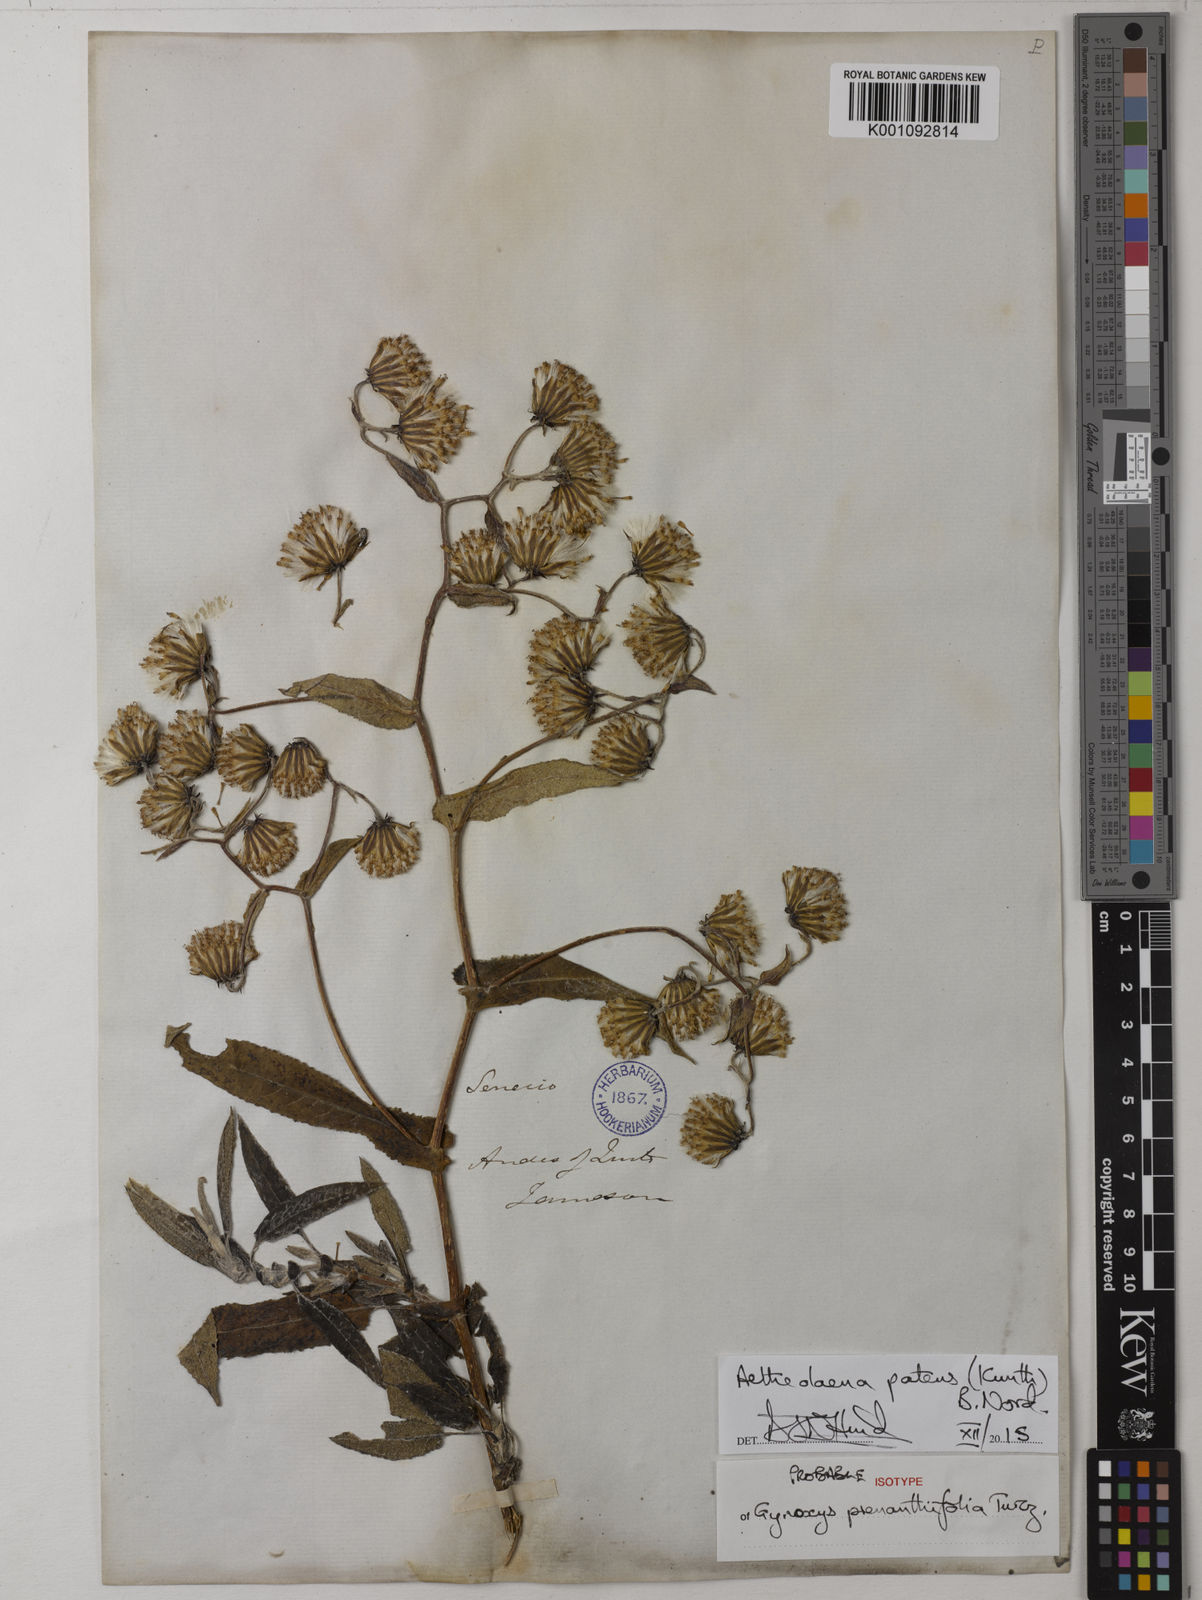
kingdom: Plantae
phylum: Tracheophyta
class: Magnoliopsida
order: Asterales
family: Asteraceae
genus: Aetheolaena
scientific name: Aetheolaena patens
